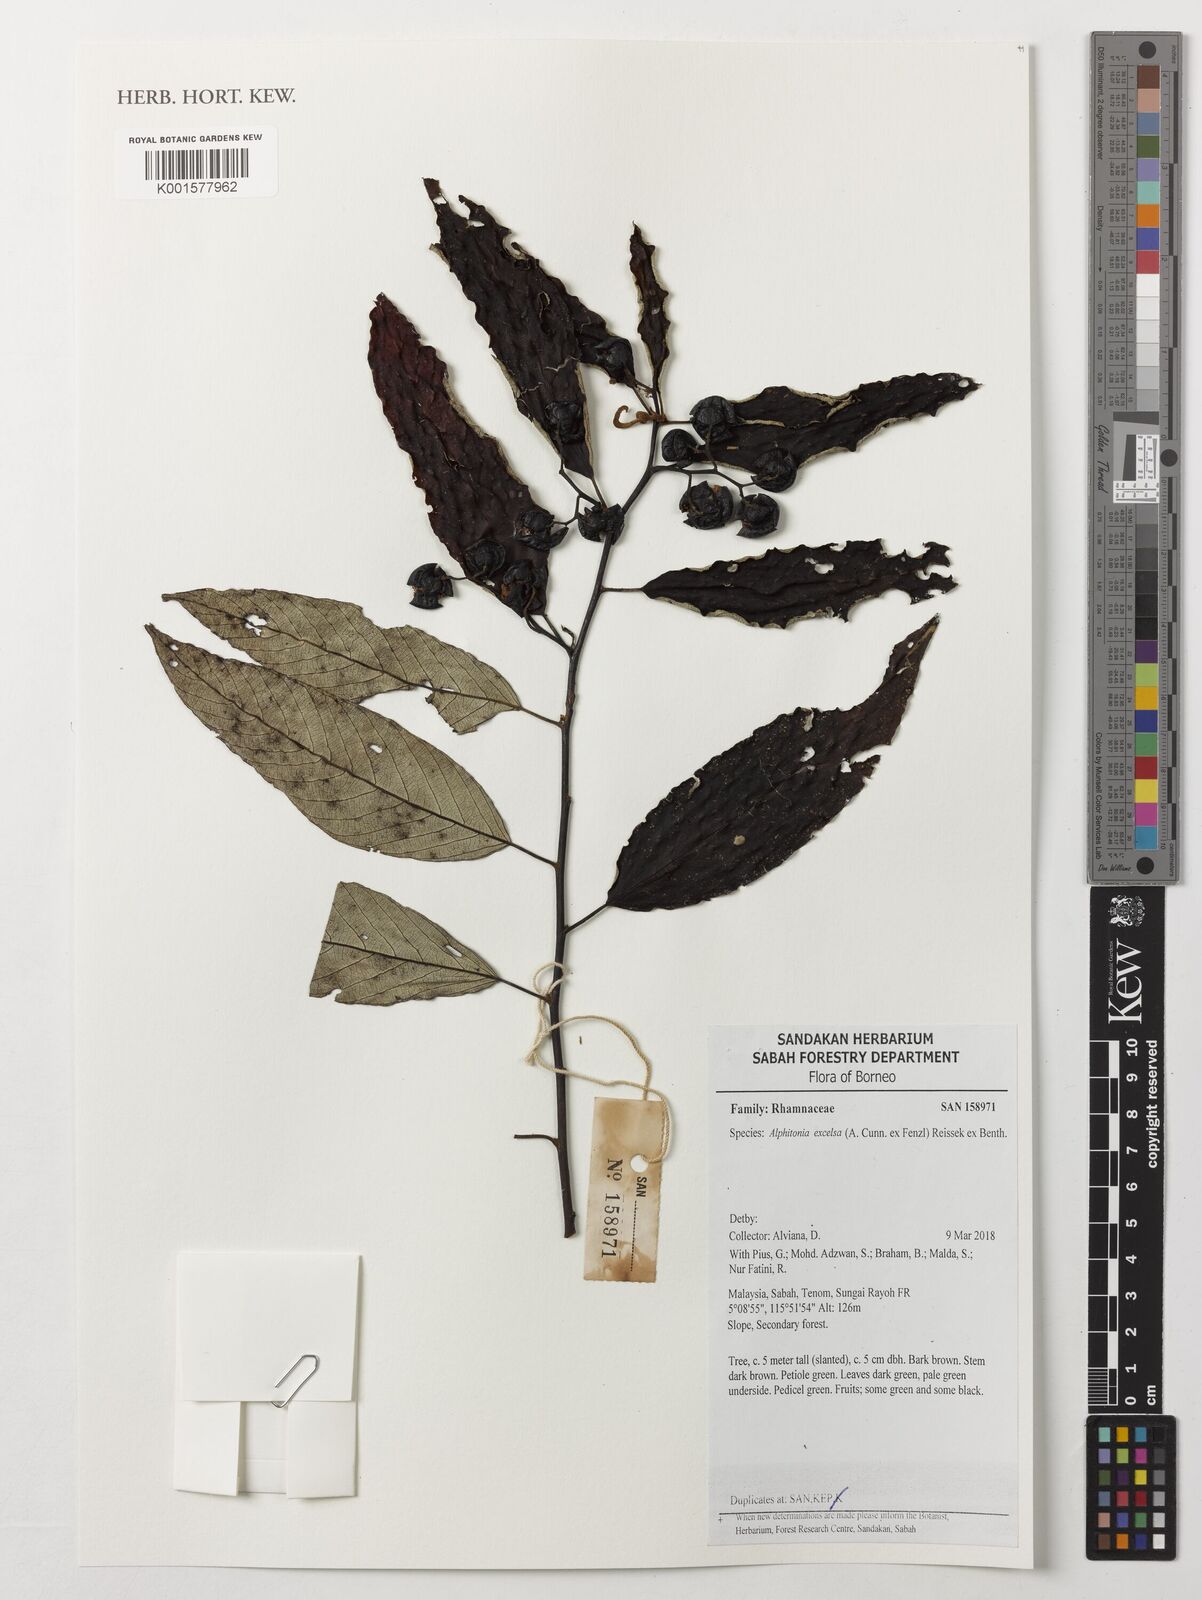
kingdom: Plantae
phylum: Tracheophyta
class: Magnoliopsida
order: Rosales
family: Rhamnaceae
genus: Alphitonia
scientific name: Alphitonia excelsa
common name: Red ash
